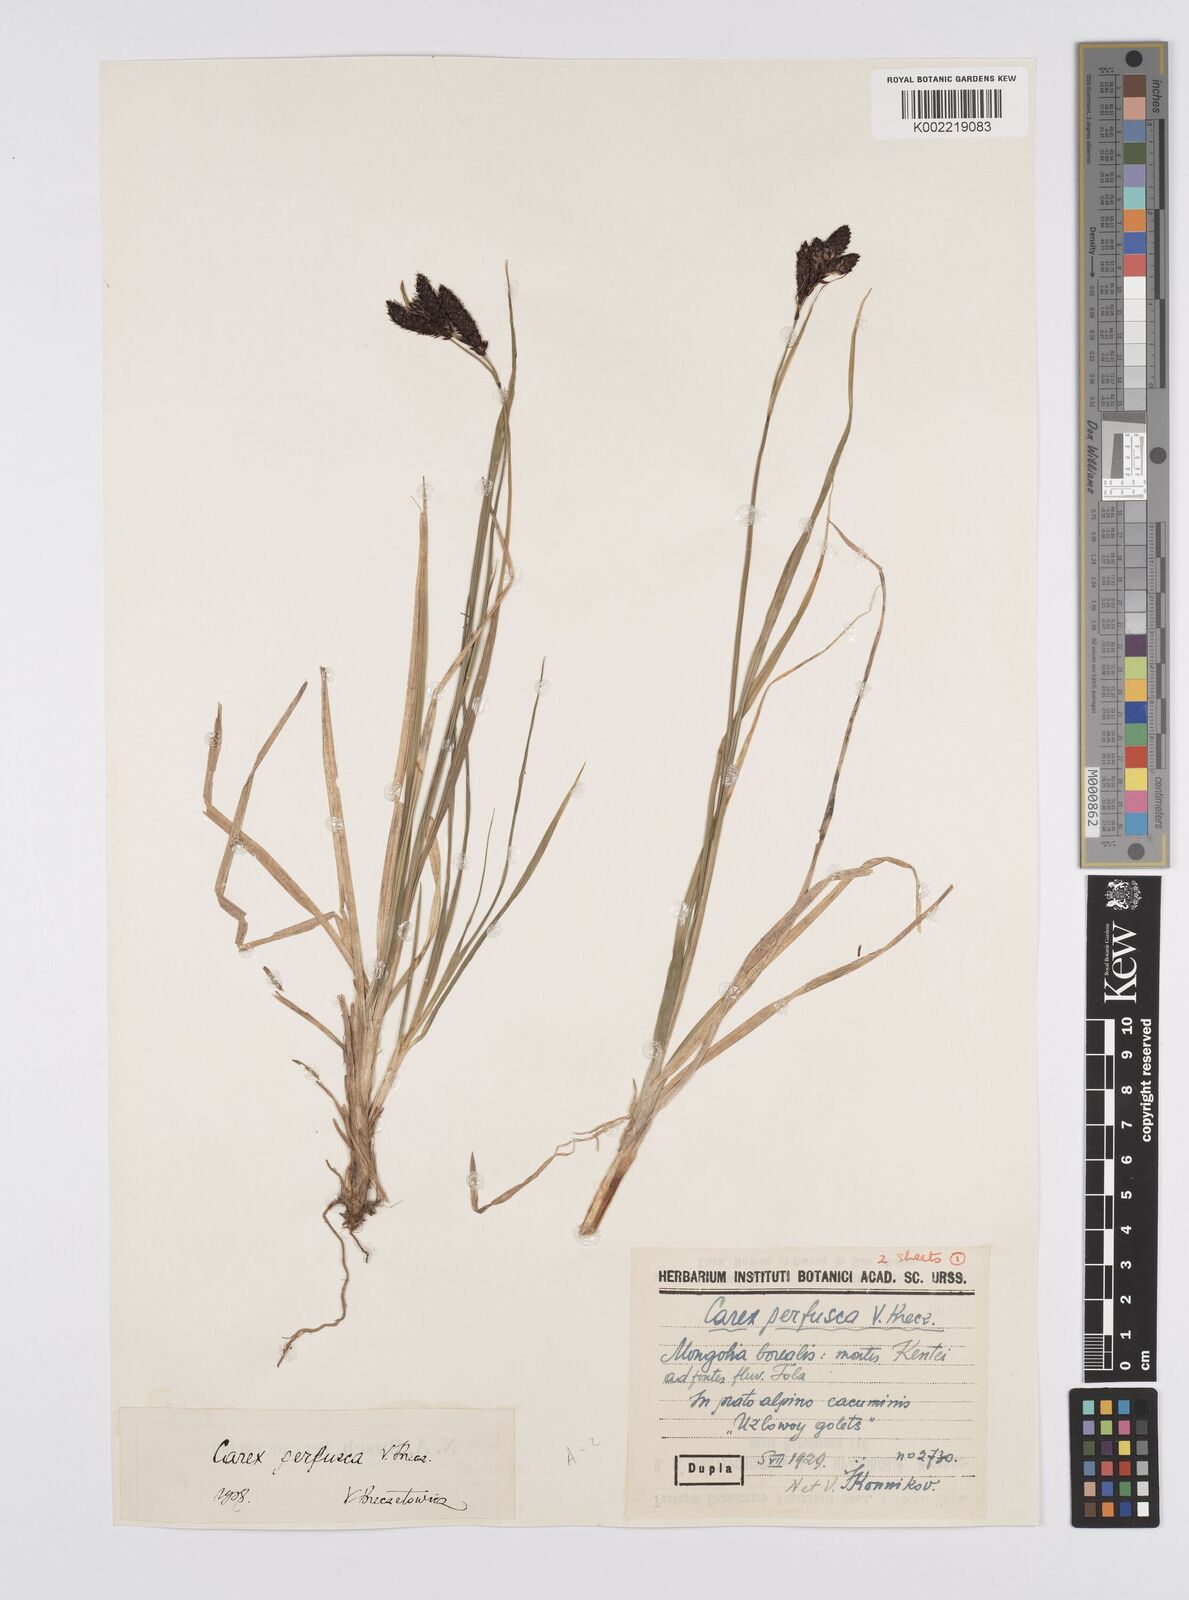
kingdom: Plantae
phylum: Tracheophyta
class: Liliopsida
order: Poales
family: Cyperaceae
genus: Carex
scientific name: Carex aterrima
